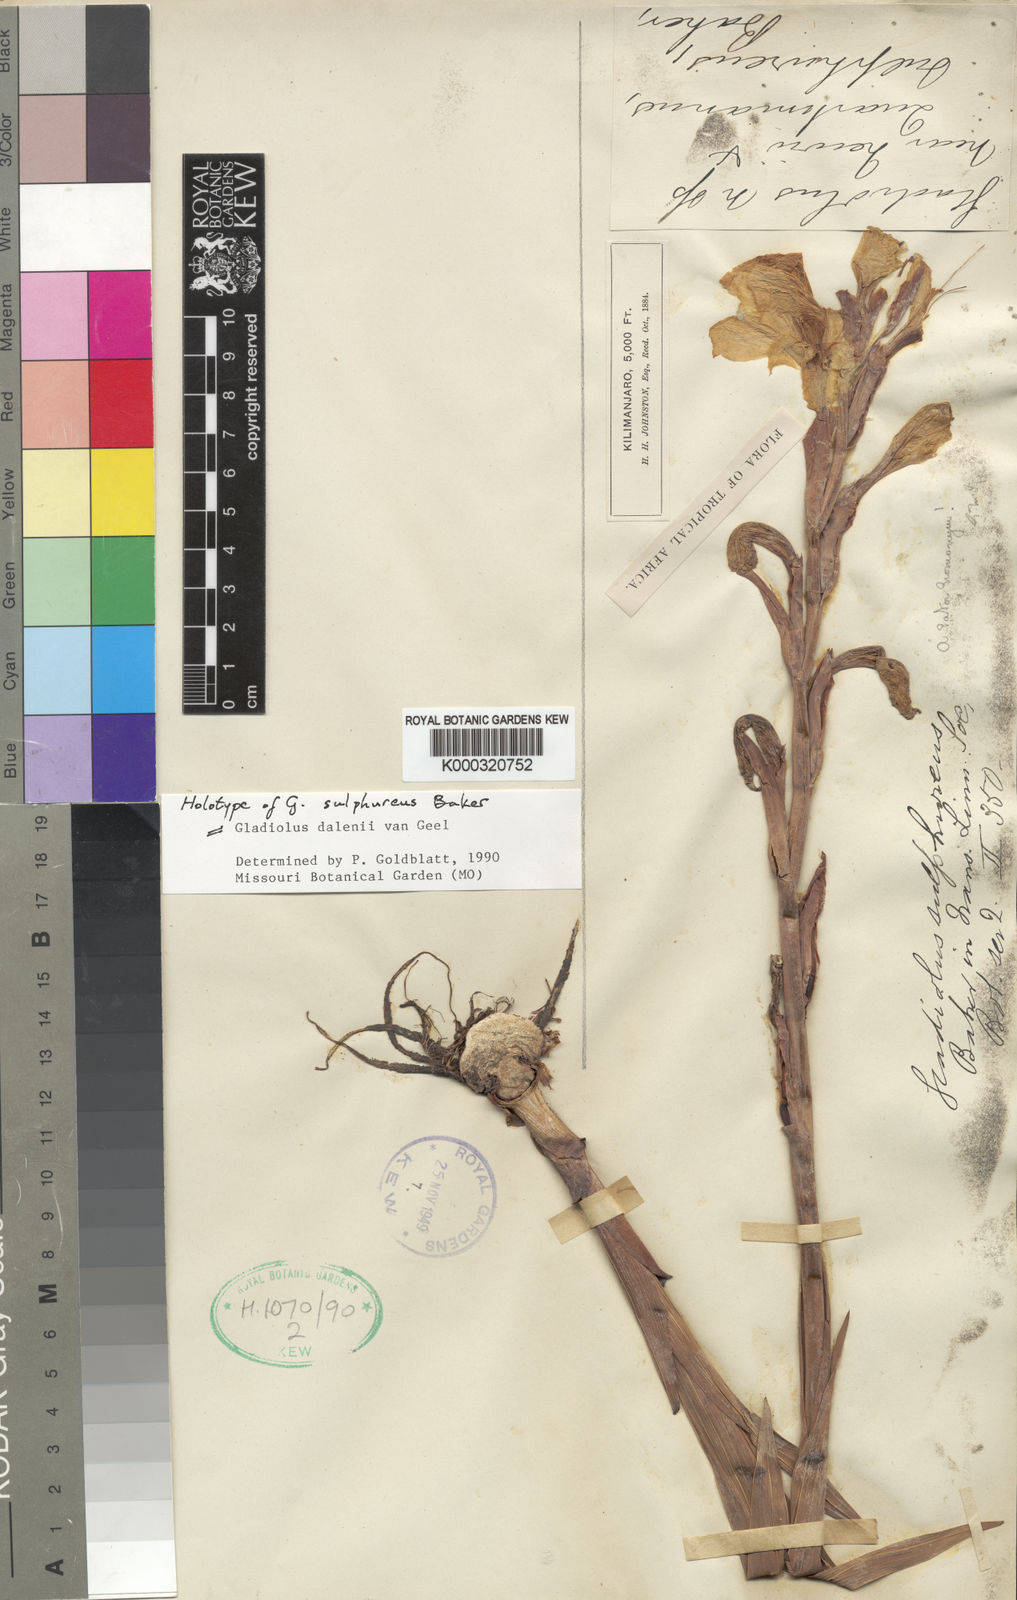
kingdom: Plantae
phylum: Tracheophyta
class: Liliopsida
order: Asparagales
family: Iridaceae
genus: Gladiolus
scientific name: Gladiolus dalenii
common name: Cornflag
